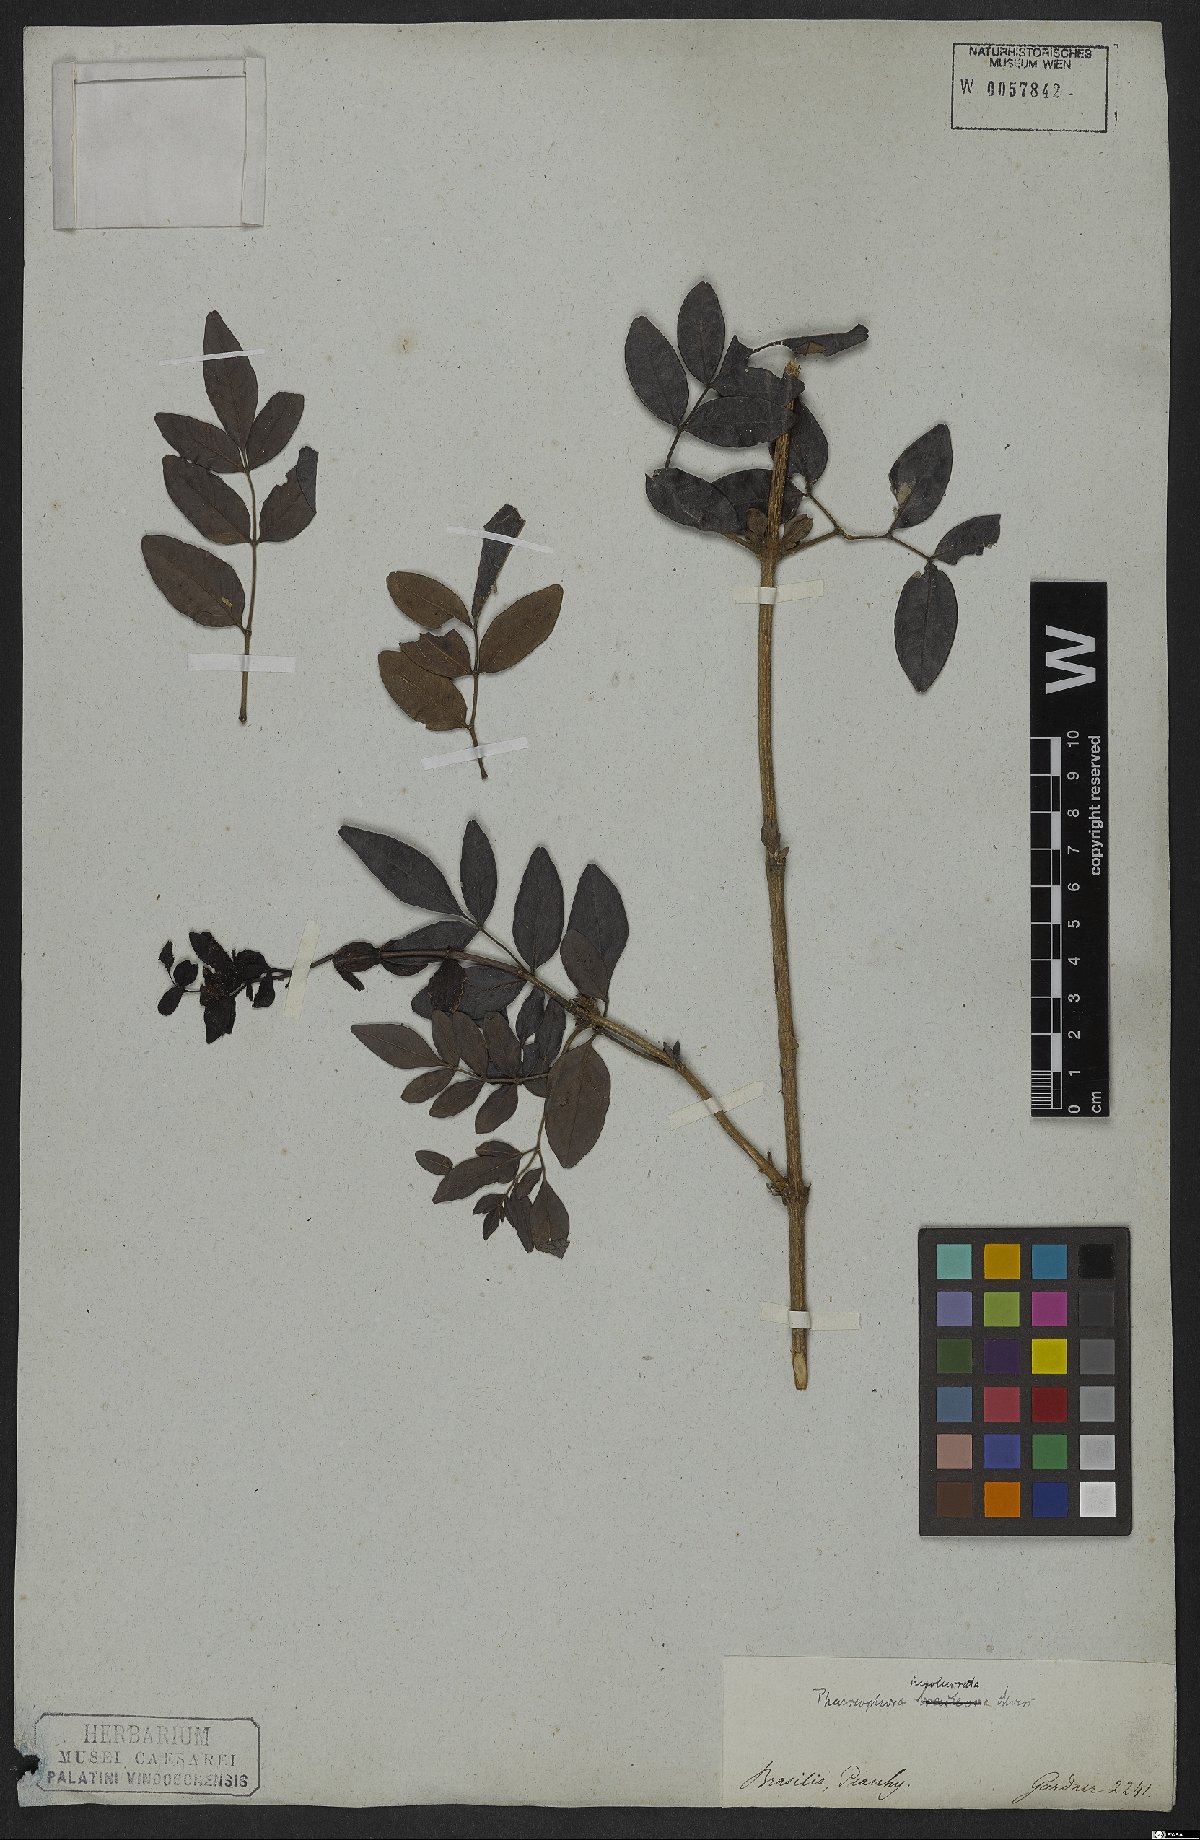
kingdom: Plantae
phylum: Tracheophyta
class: Magnoliopsida
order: Lamiales
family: Bignoniaceae
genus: Adenocalymma
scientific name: Adenocalymma involucratum
